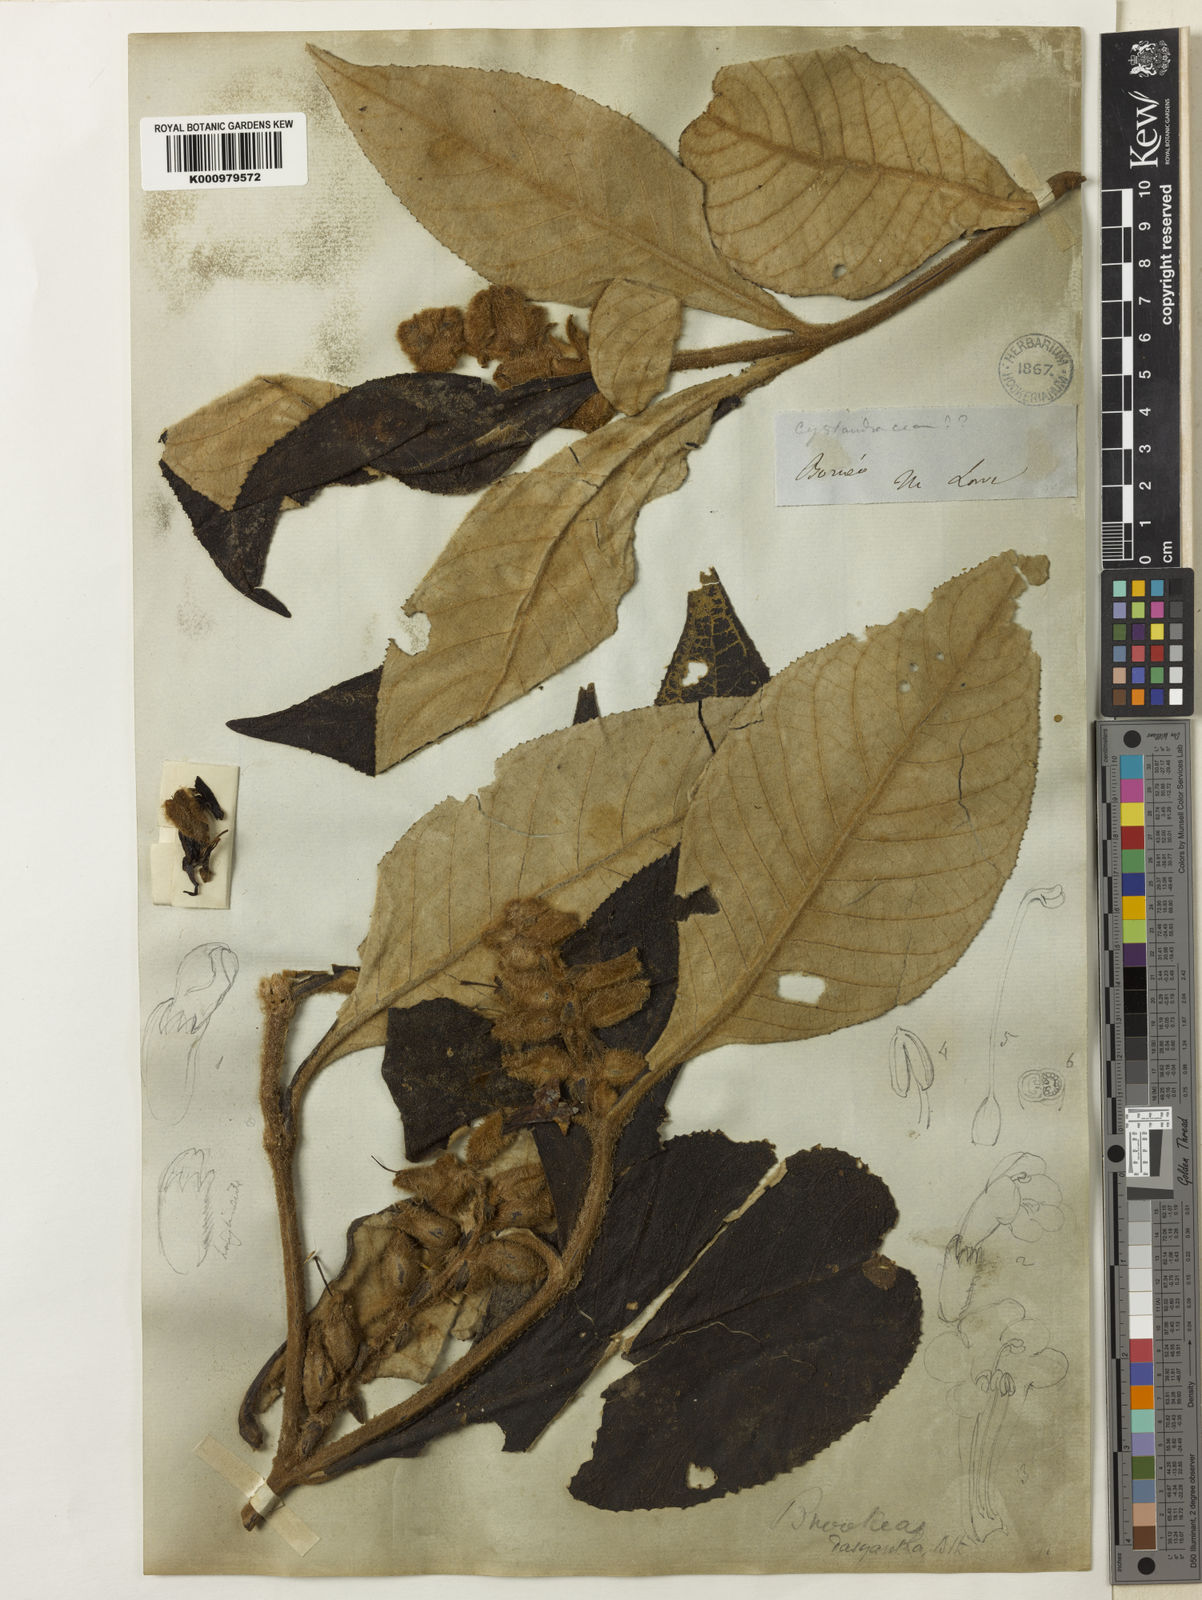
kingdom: Plantae
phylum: Tracheophyta
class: Magnoliopsida
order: Lamiales
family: Plantaginaceae
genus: Brookea
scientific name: Brookea dasyantha
